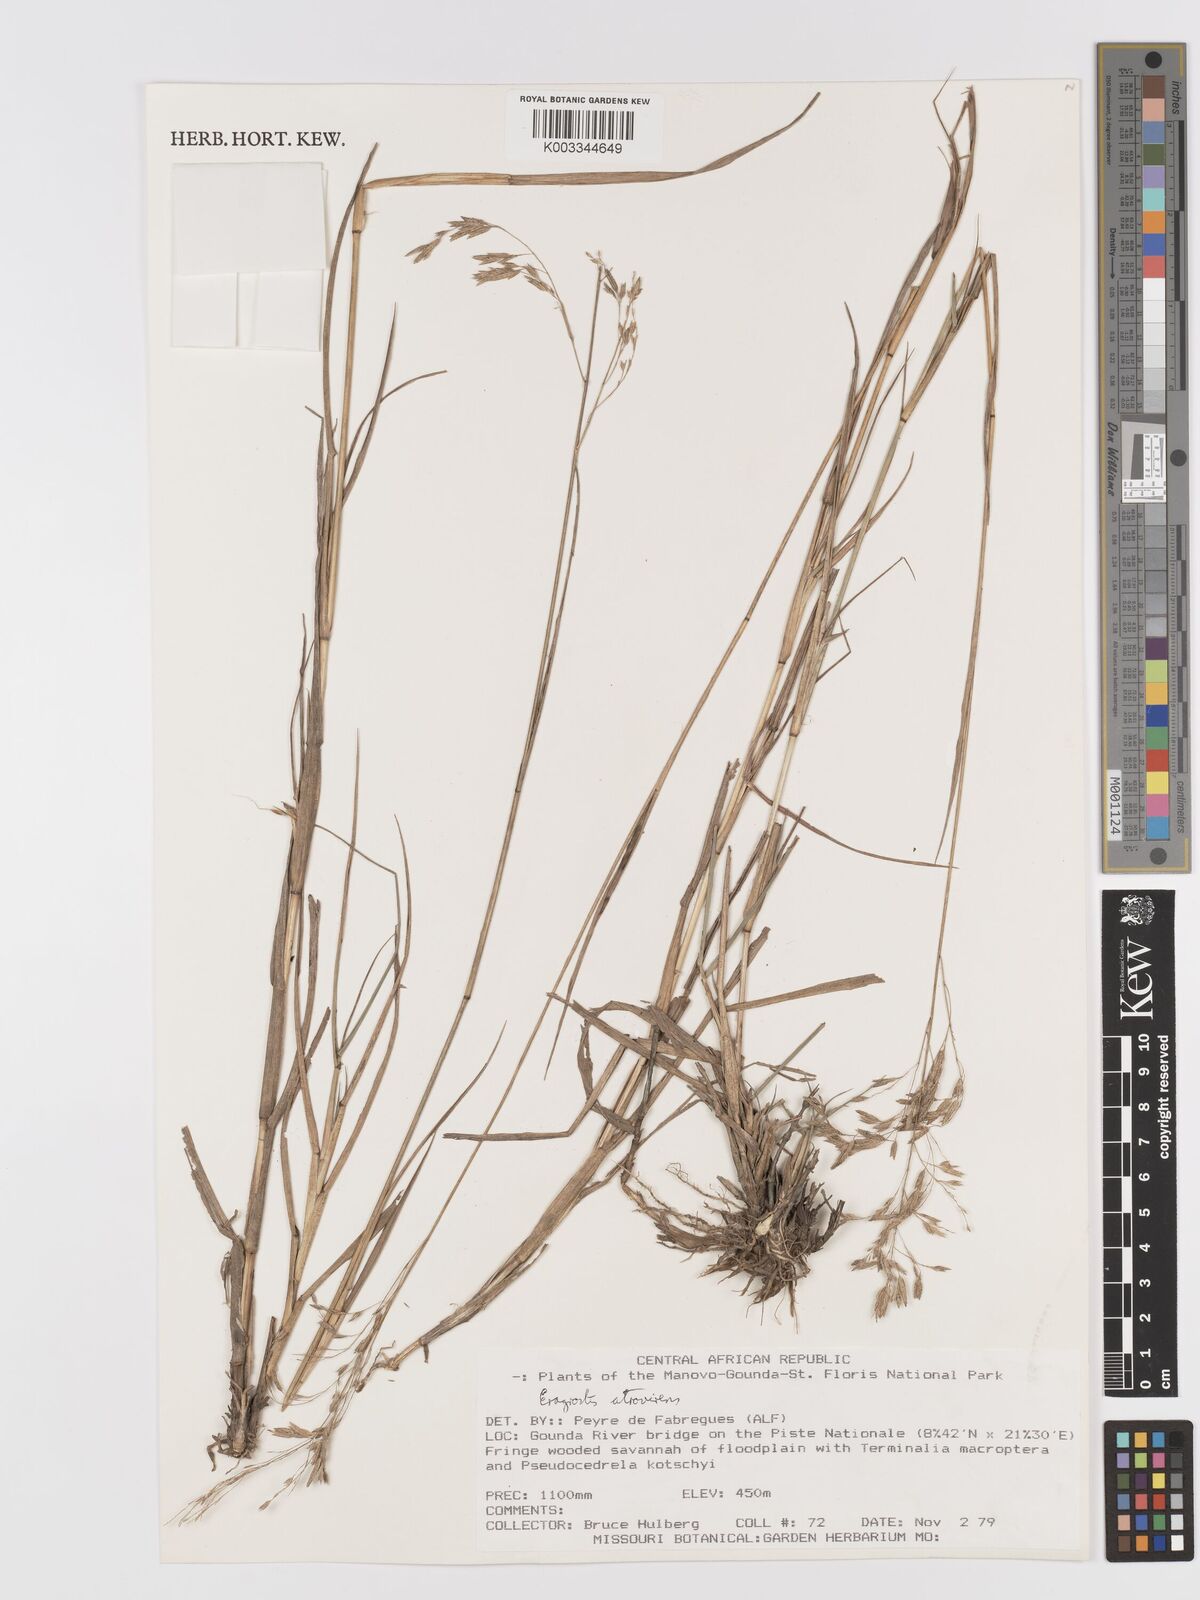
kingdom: Plantae
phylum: Tracheophyta
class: Liliopsida
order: Poales
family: Poaceae
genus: Eragrostis
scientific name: Eragrostis atrovirens
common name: Thalia lovegrass
